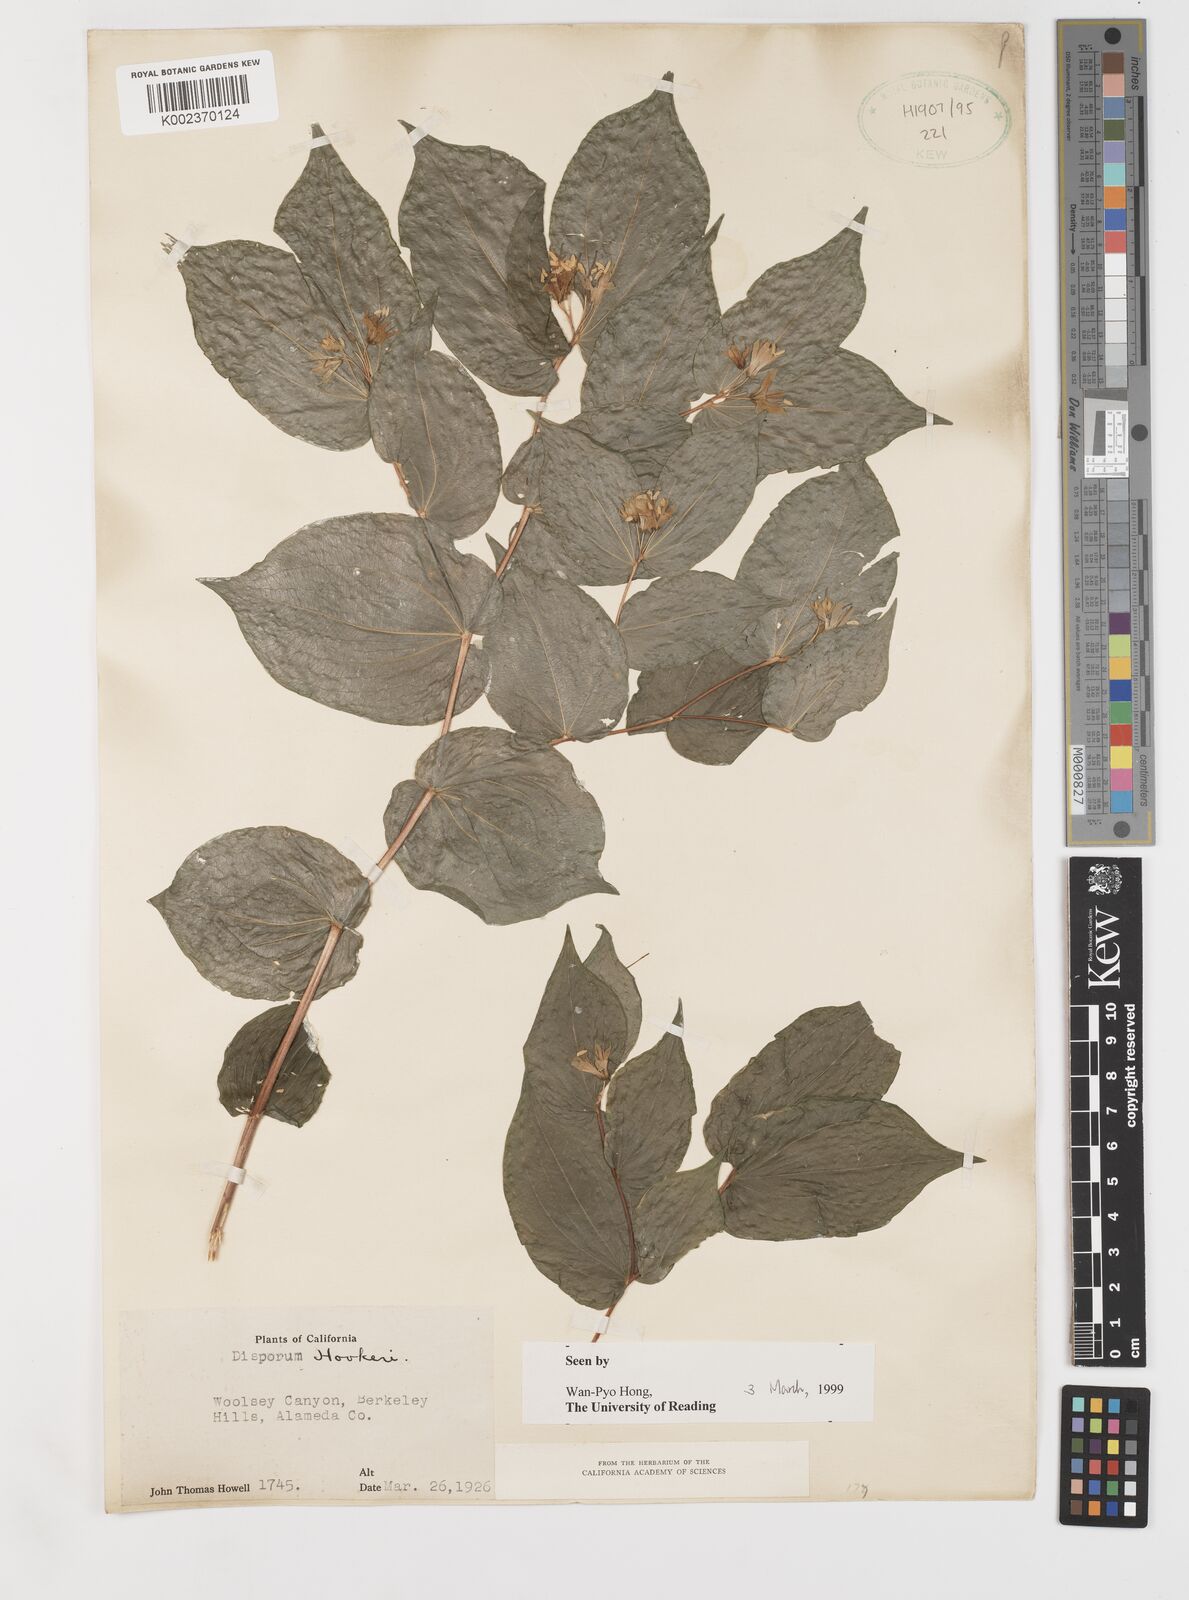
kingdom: Plantae
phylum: Tracheophyta
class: Liliopsida
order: Liliales
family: Liliaceae
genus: Prosartes
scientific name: Prosartes hookeri
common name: Fairy-bells
